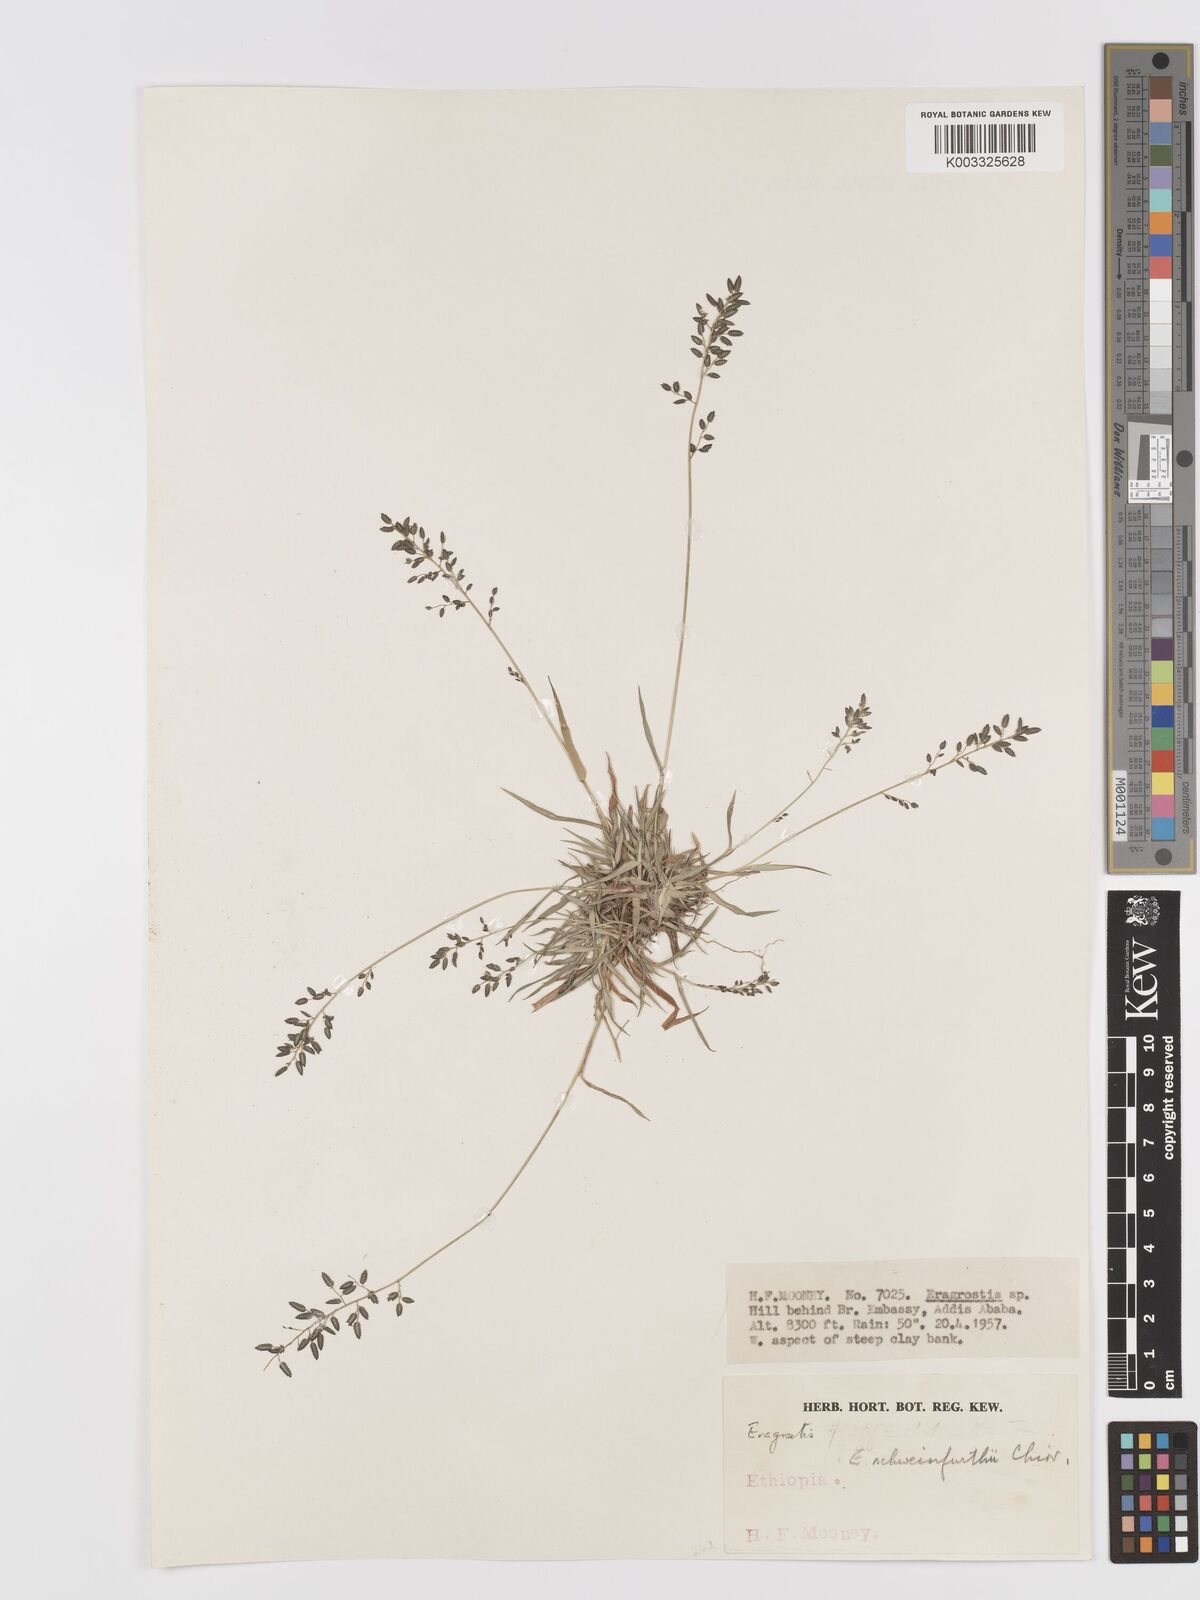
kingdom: Plantae
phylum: Tracheophyta
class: Liliopsida
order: Poales
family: Poaceae
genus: Eragrostis
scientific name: Eragrostis schweinfurthii
